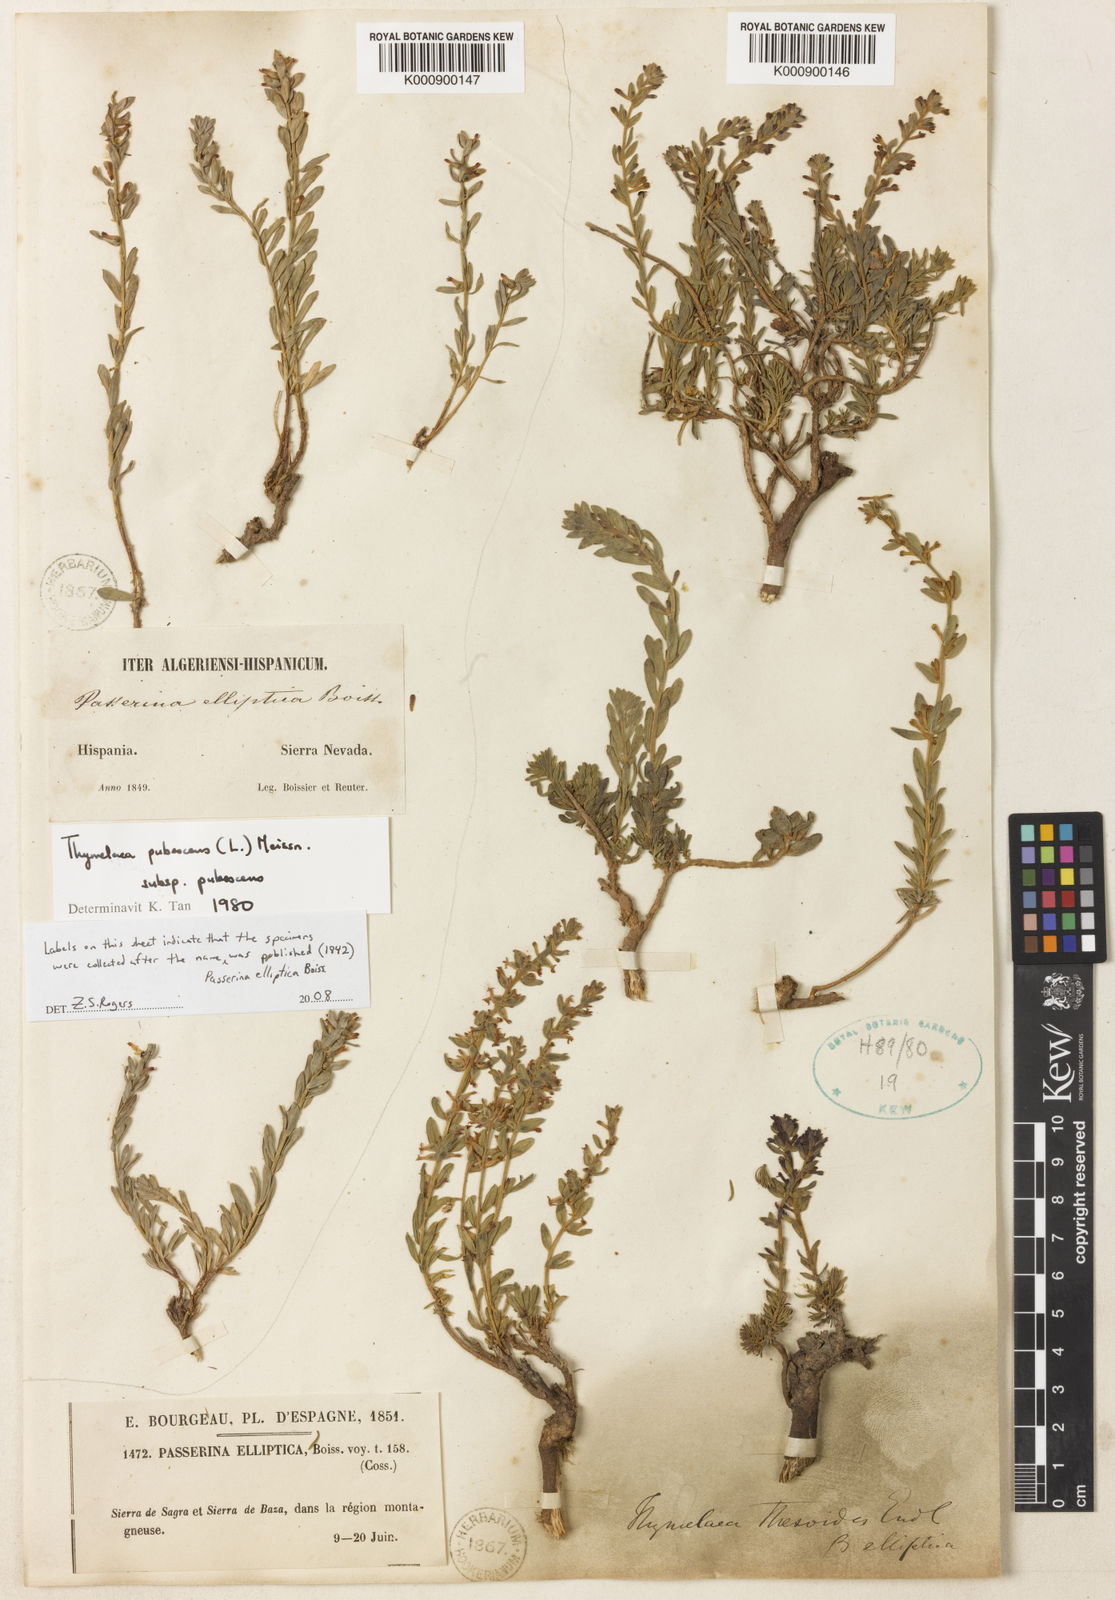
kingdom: Plantae
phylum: Tracheophyta
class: Magnoliopsida
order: Malvales
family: Thymelaeaceae
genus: Thymelaea
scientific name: Thymelaea pubescens
